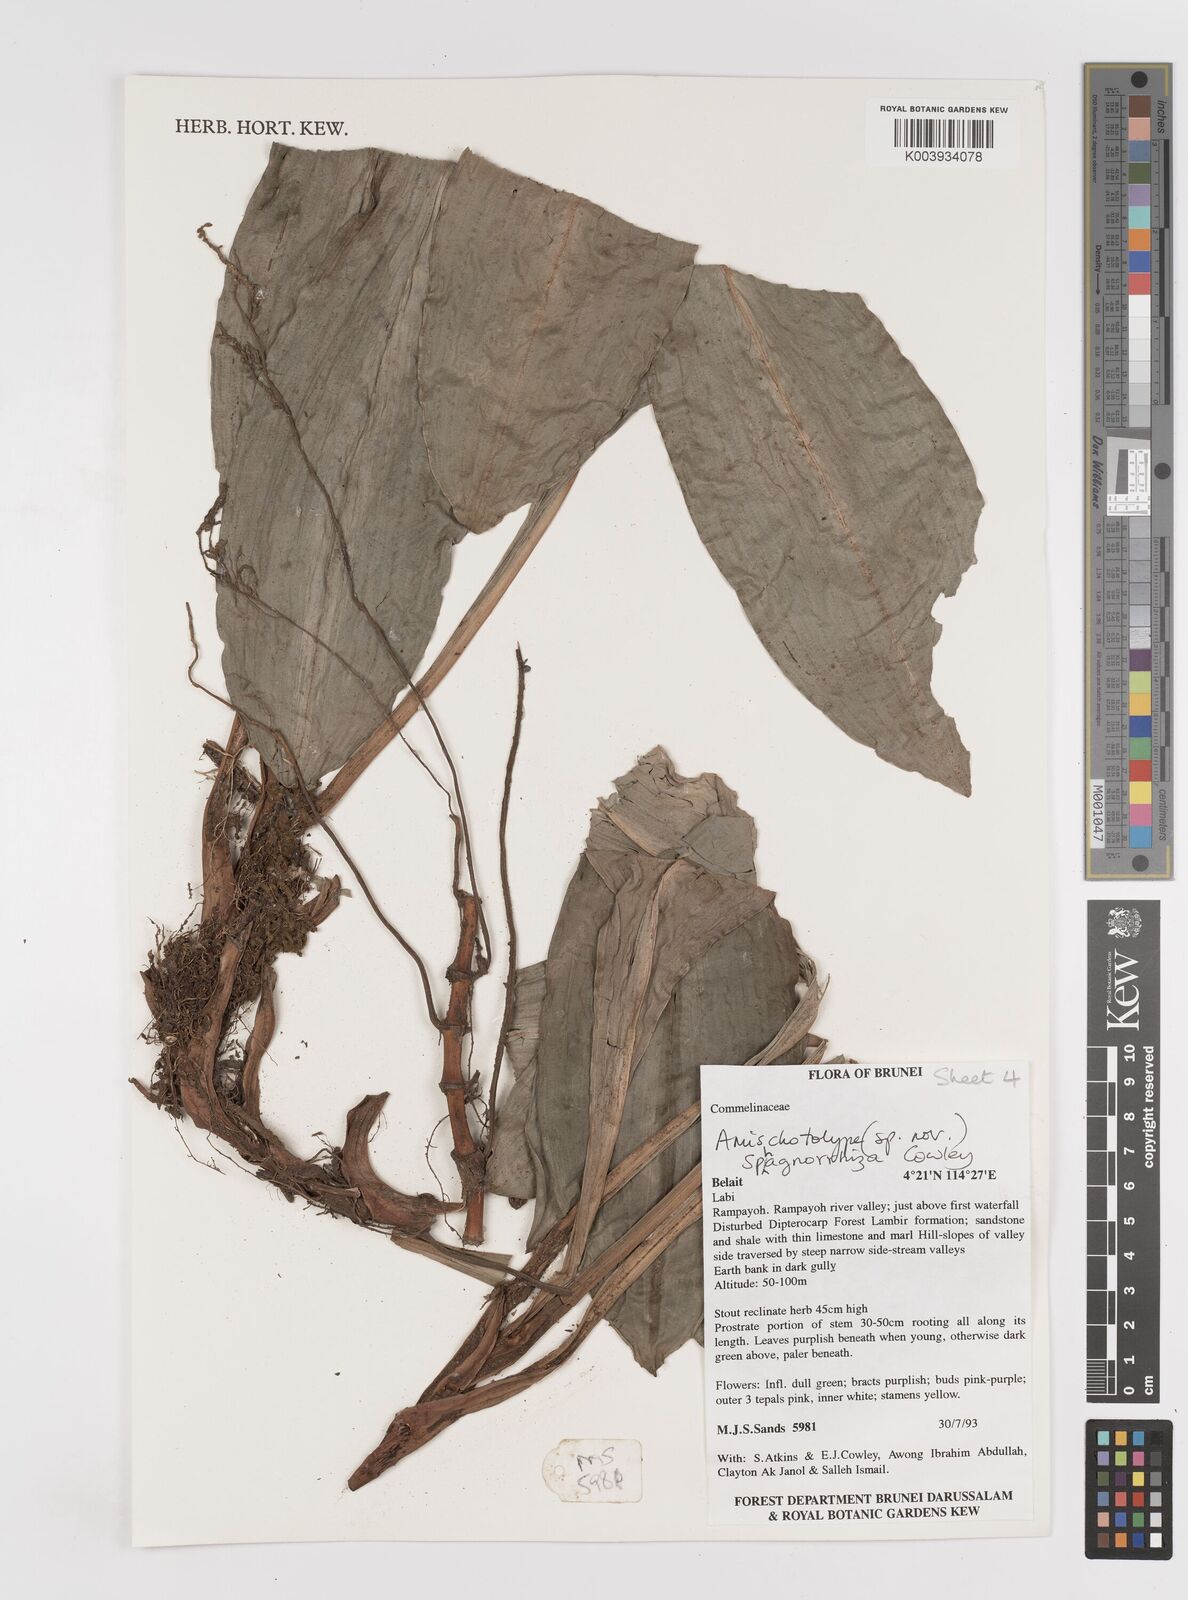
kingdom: Plantae
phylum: Tracheophyta
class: Liliopsida
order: Commelinales
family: Commelinaceae
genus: Amischotolype
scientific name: Amischotolype sphagnorrhiza
